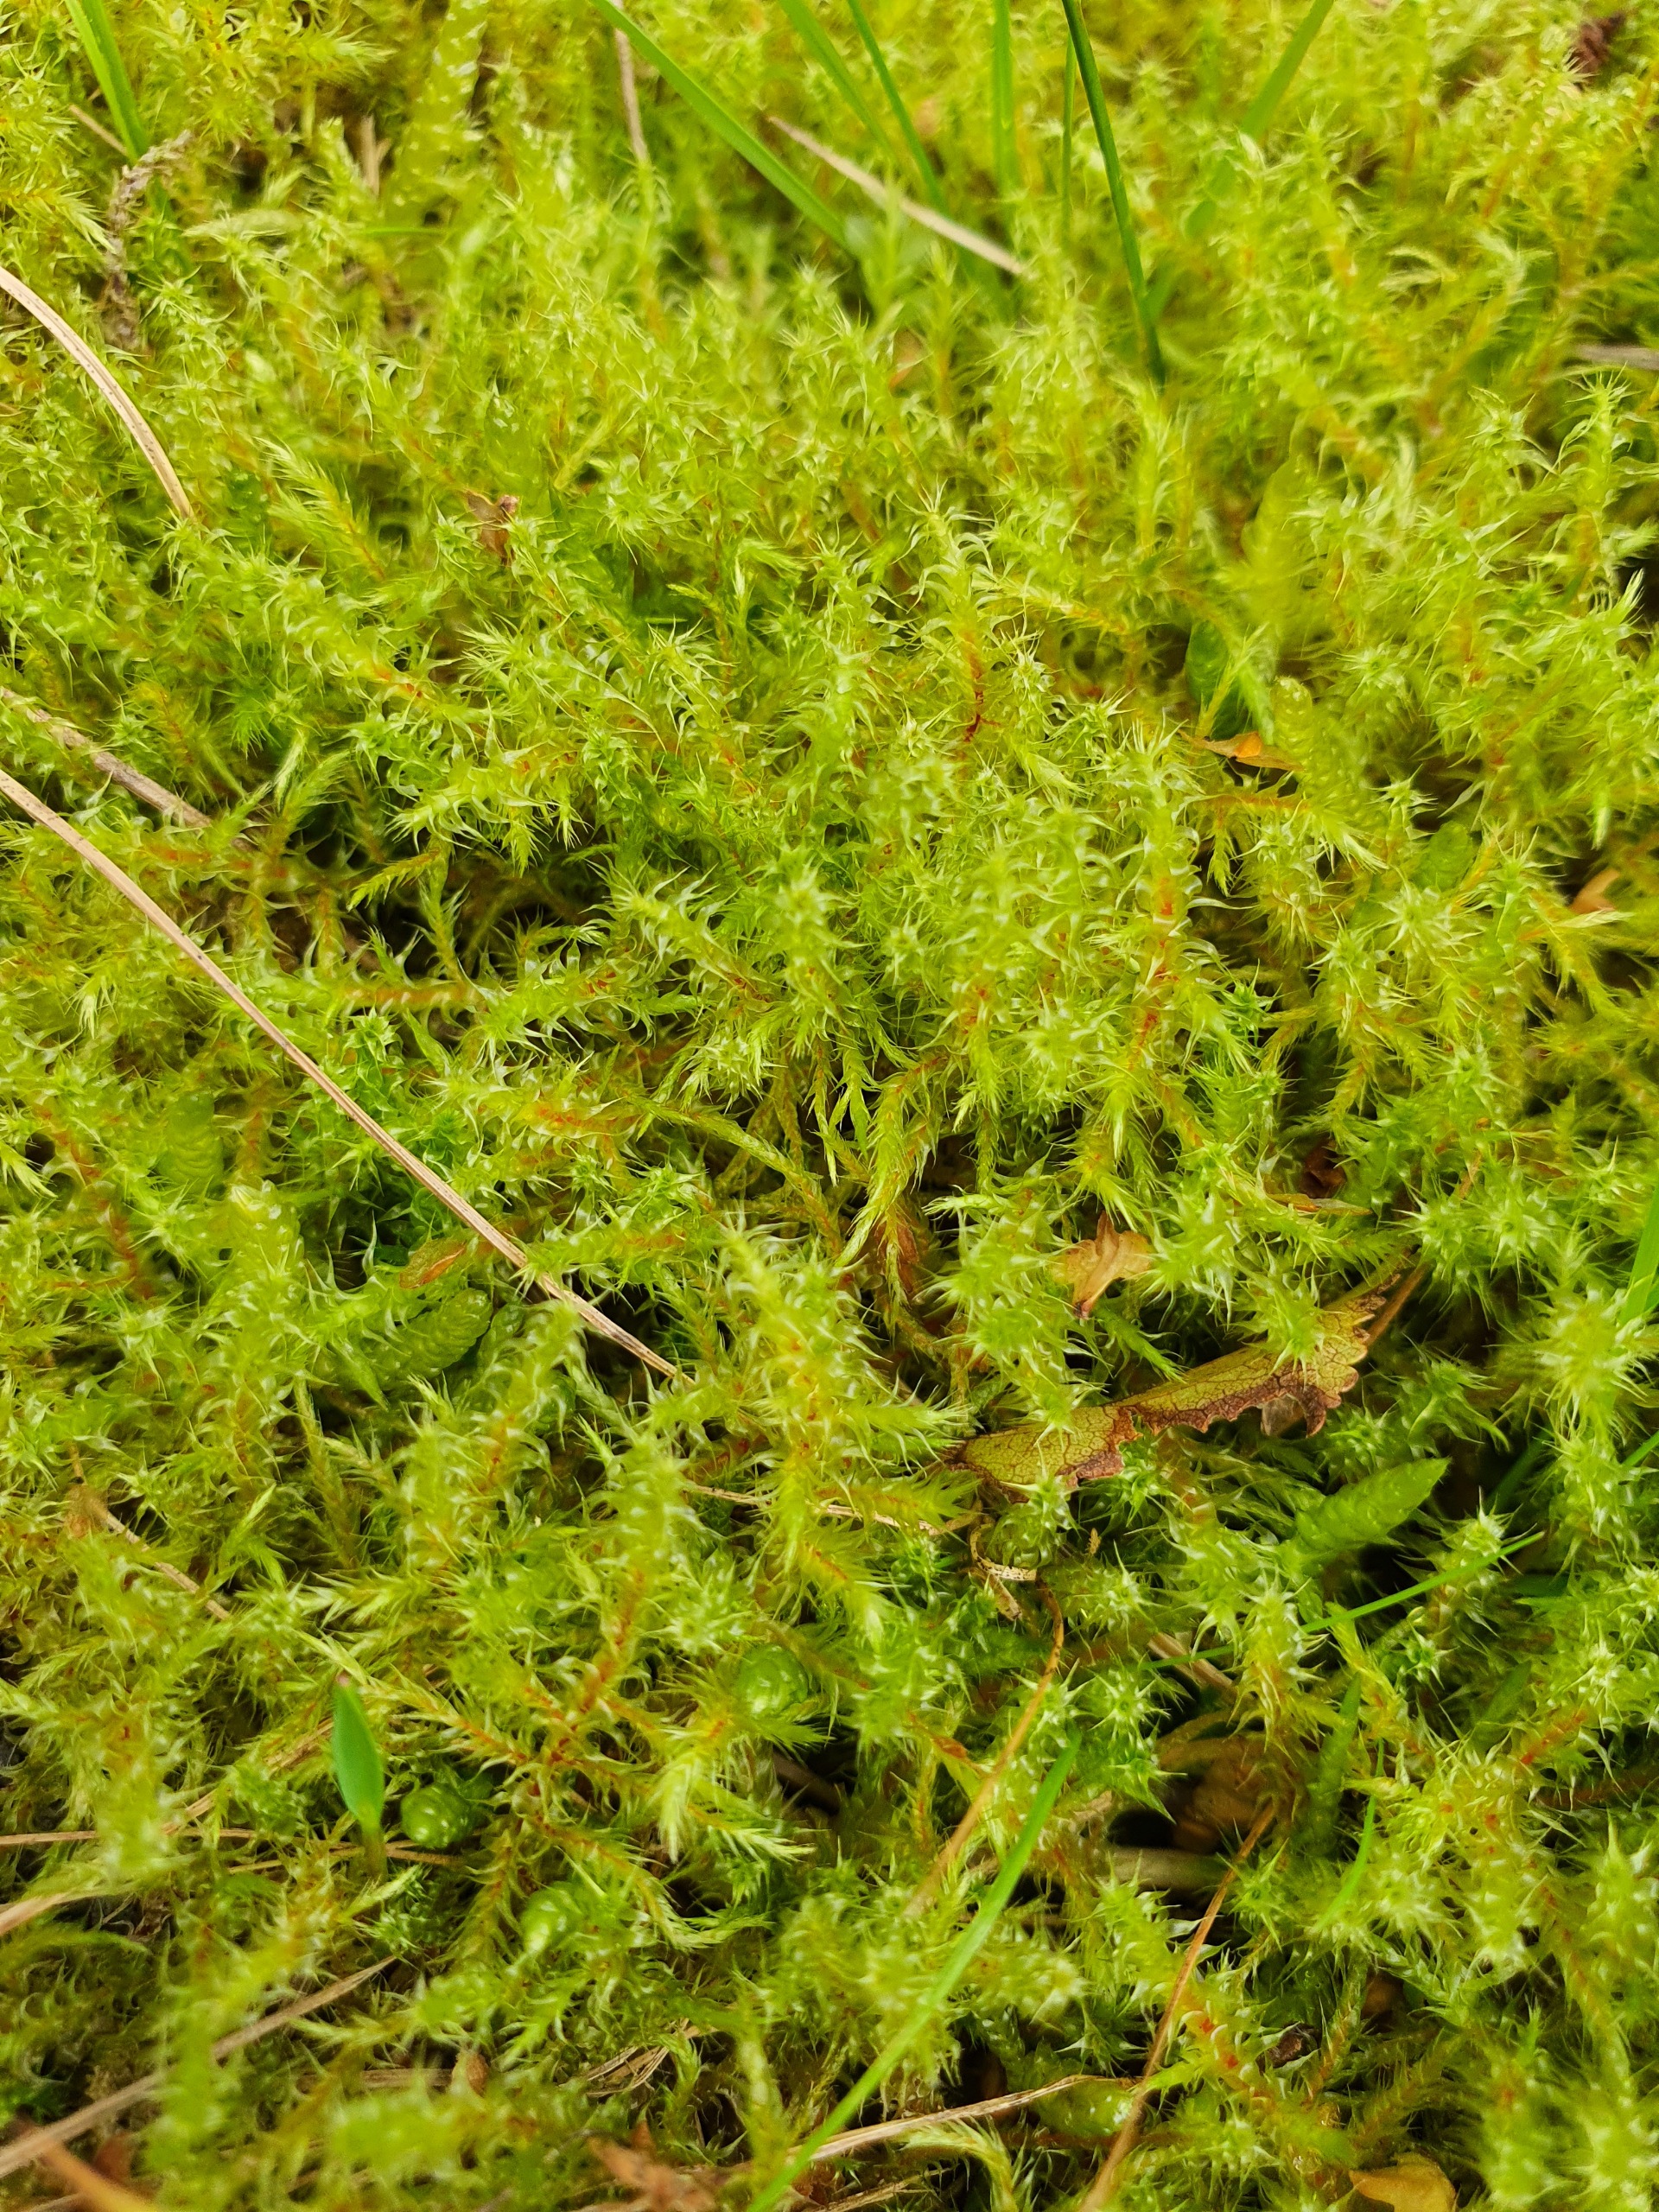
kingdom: Plantae
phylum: Bryophyta
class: Bryopsida
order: Hypnales
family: Hylocomiaceae
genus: Rhytidiadelphus
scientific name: Rhytidiadelphus squarrosus
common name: Plæne-kransemos
